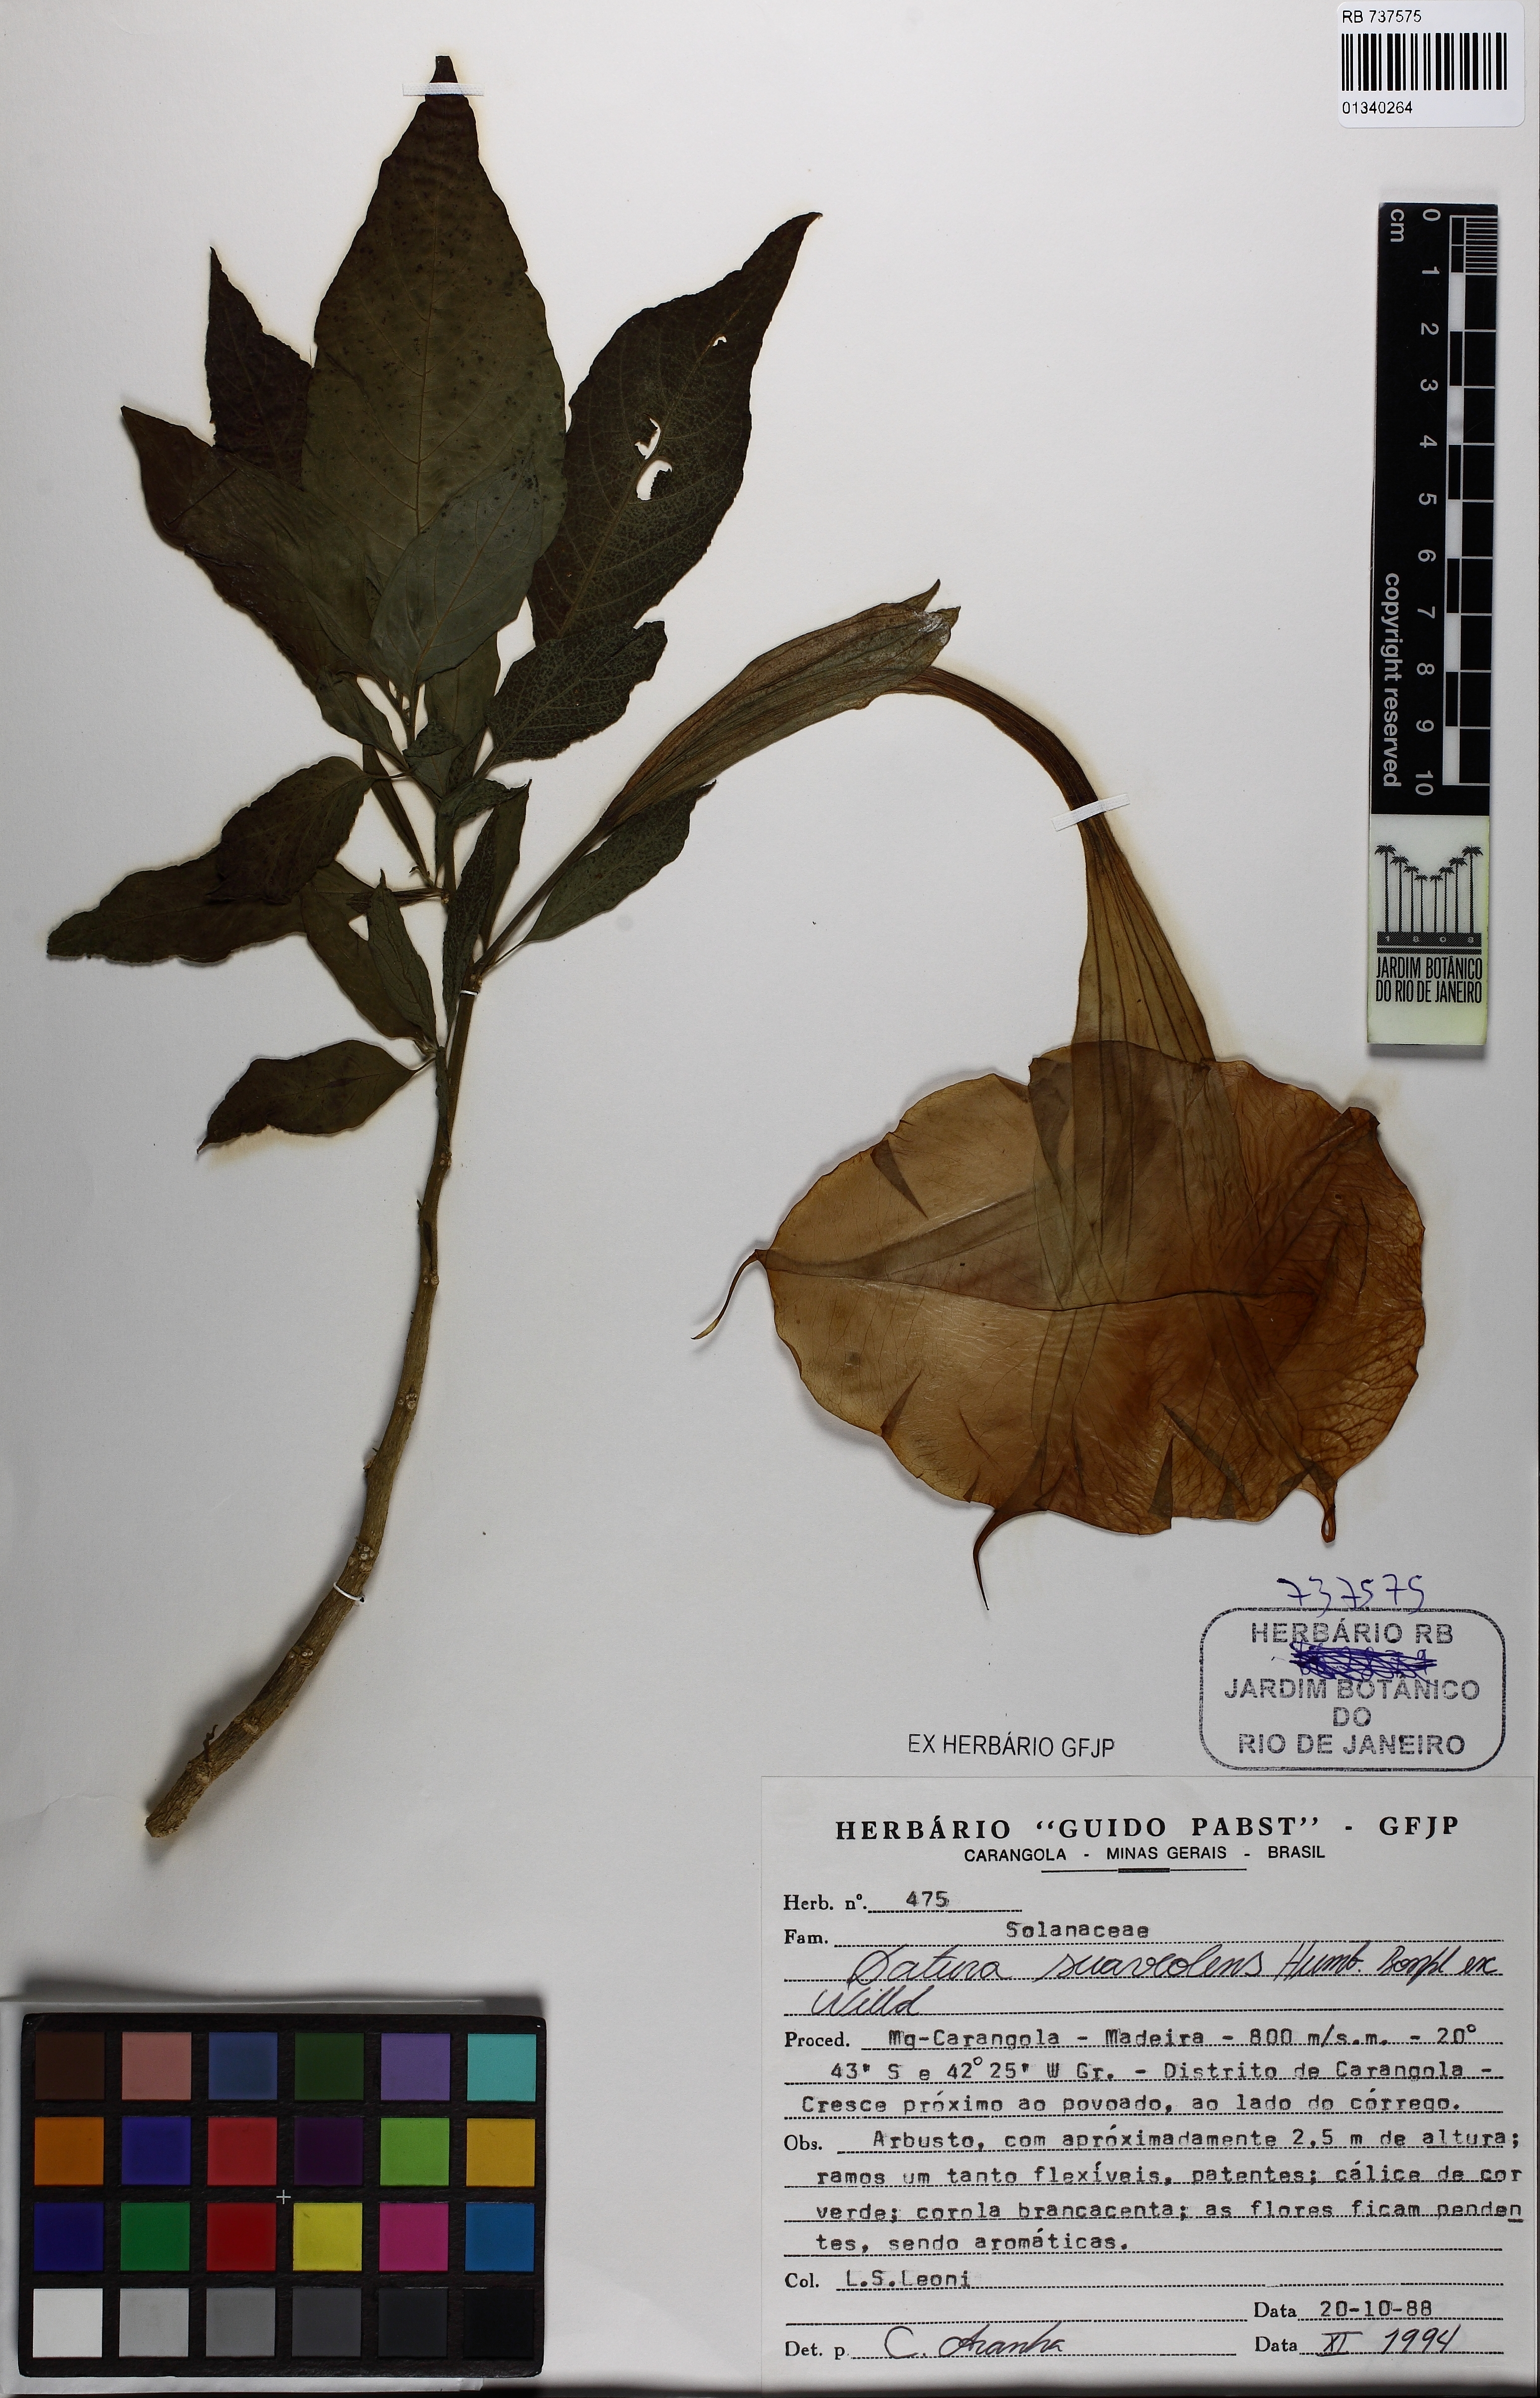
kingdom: Plantae
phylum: Tracheophyta
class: Magnoliopsida
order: Solanales
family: Solanaceae
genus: Brugmansia
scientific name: Brugmansia suaveolens
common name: Angel's tears
